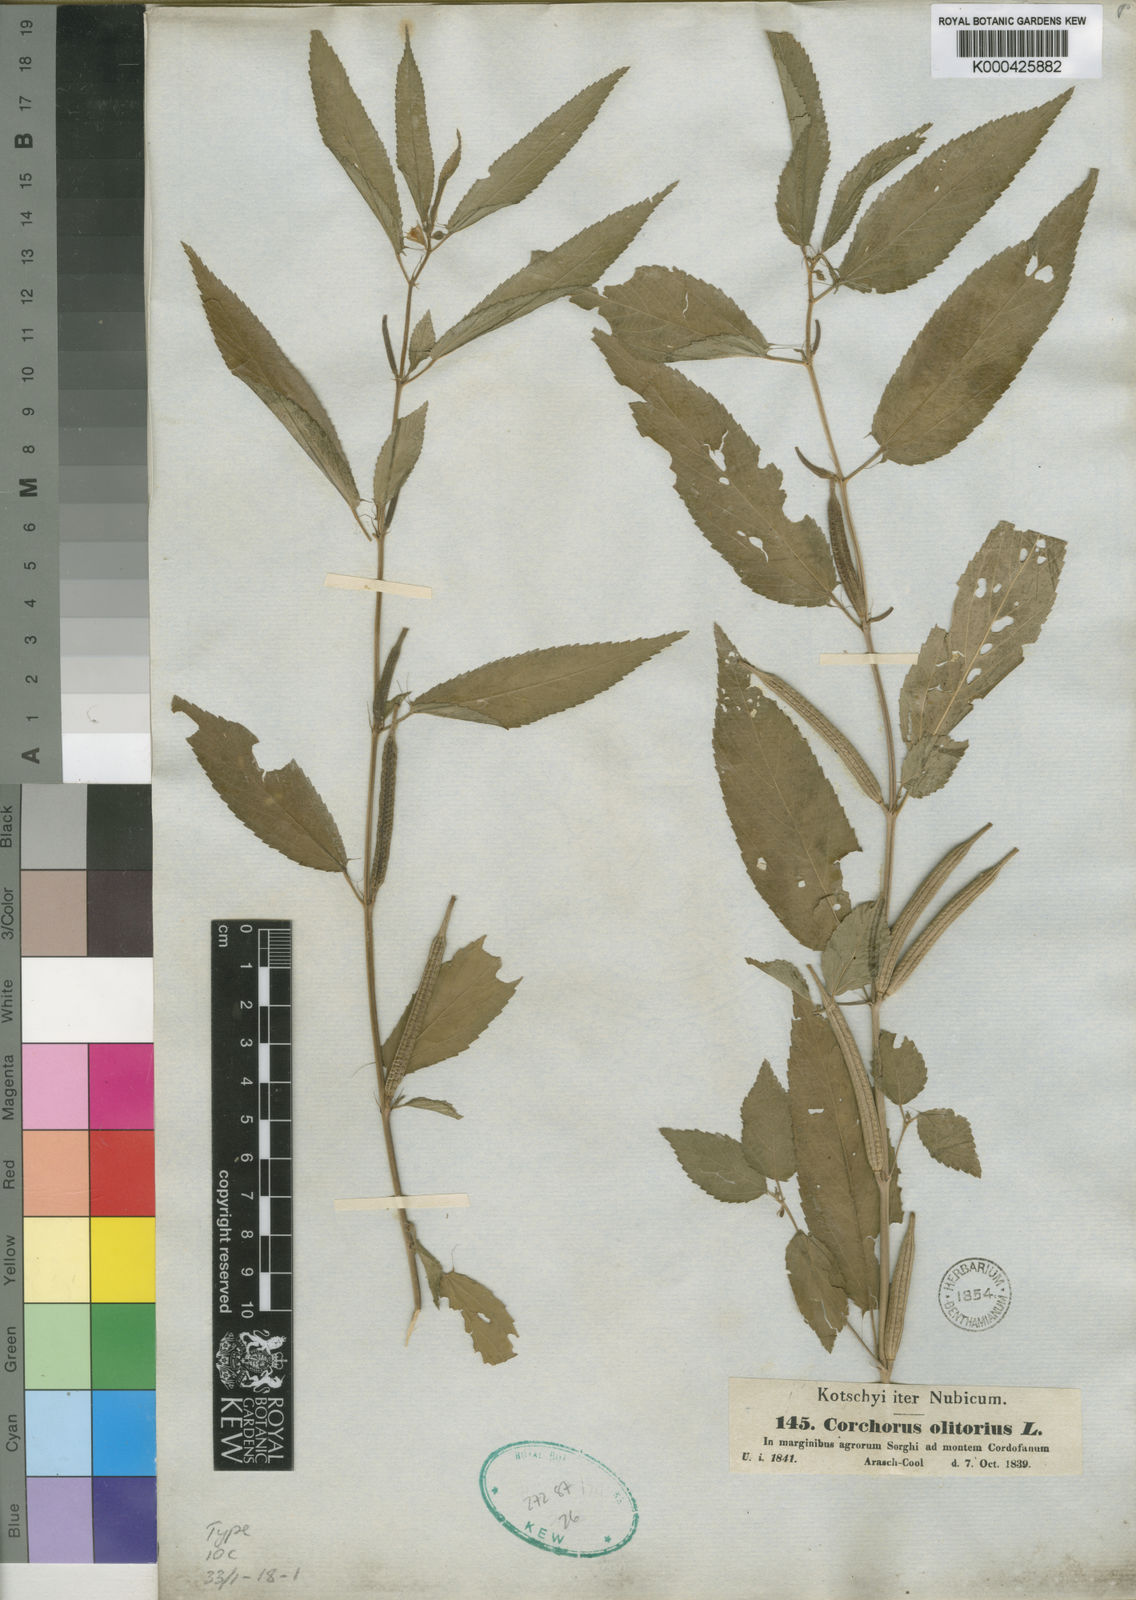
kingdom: Plantae
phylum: Tracheophyta
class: Magnoliopsida
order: Malvales
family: Malvaceae
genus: Corchorus
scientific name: Corchorus olitorius
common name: Tossa jute
